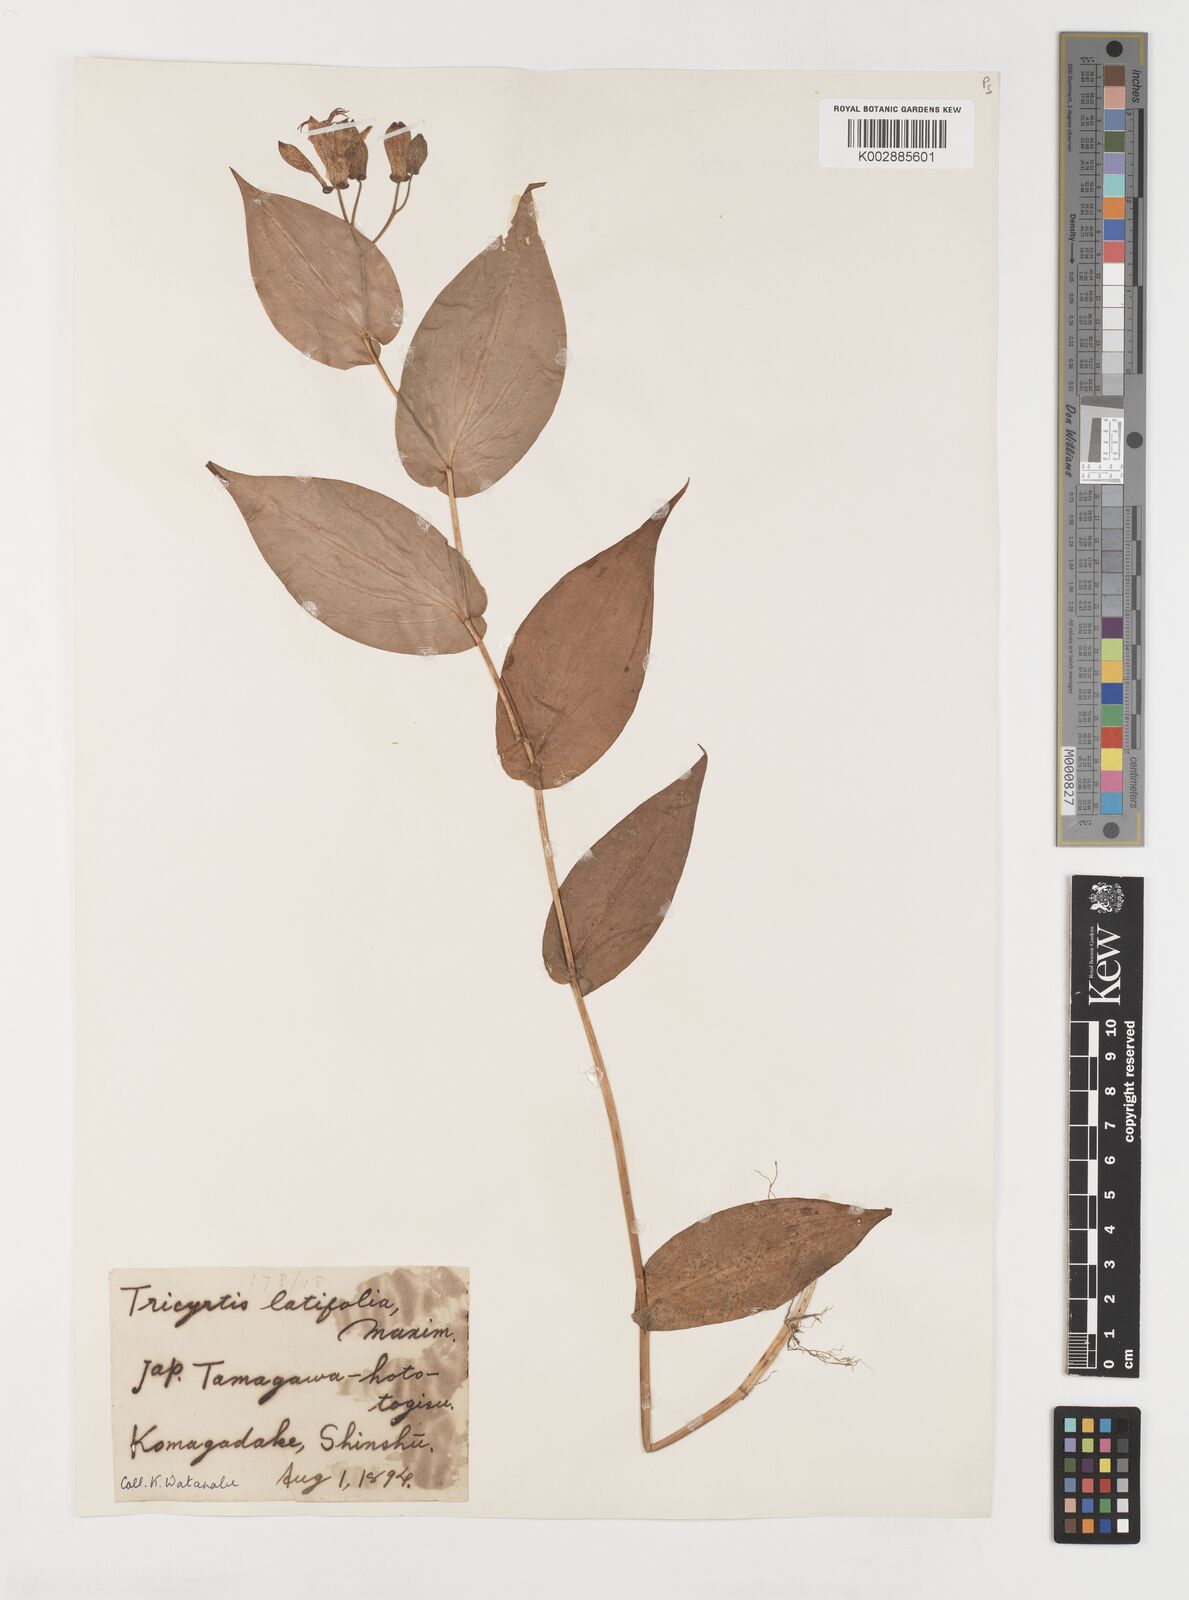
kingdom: Plantae
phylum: Tracheophyta
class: Liliopsida
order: Liliales
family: Liliaceae
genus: Tricyrtis
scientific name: Tricyrtis latifolia
